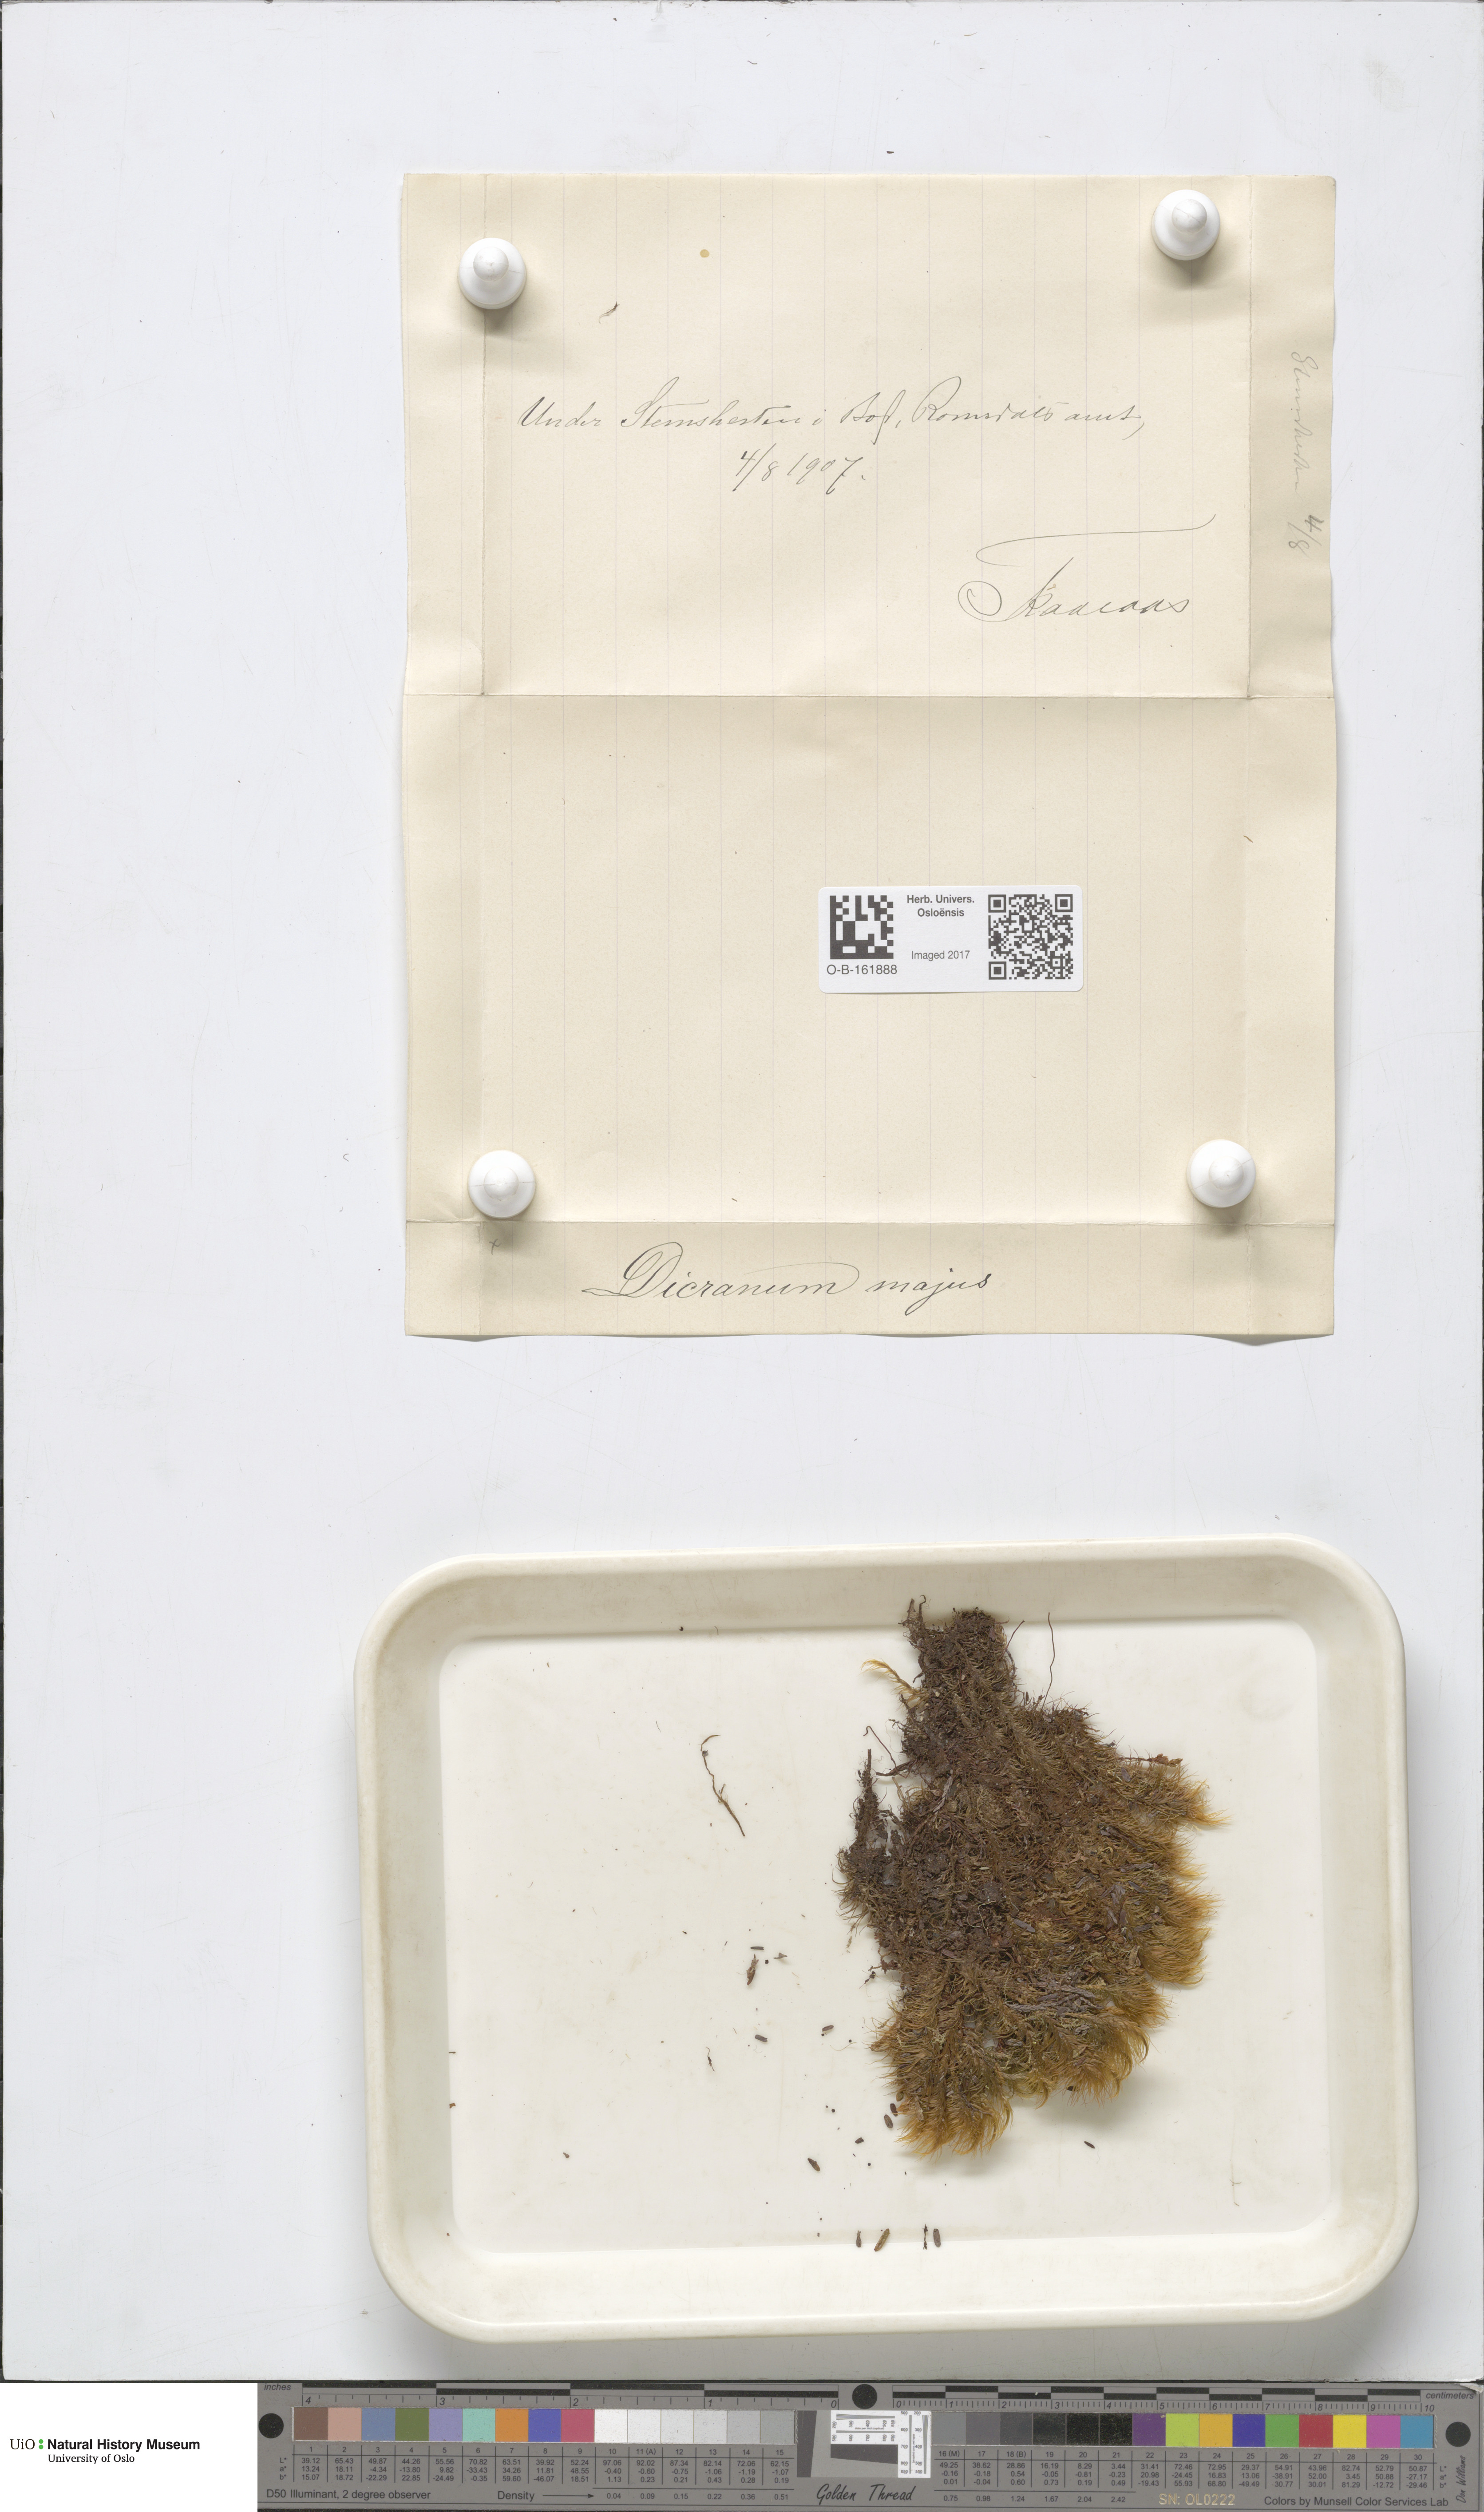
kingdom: Plantae
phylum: Bryophyta
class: Bryopsida
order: Dicranales
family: Dicranaceae
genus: Dicranum
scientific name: Dicranum majus
